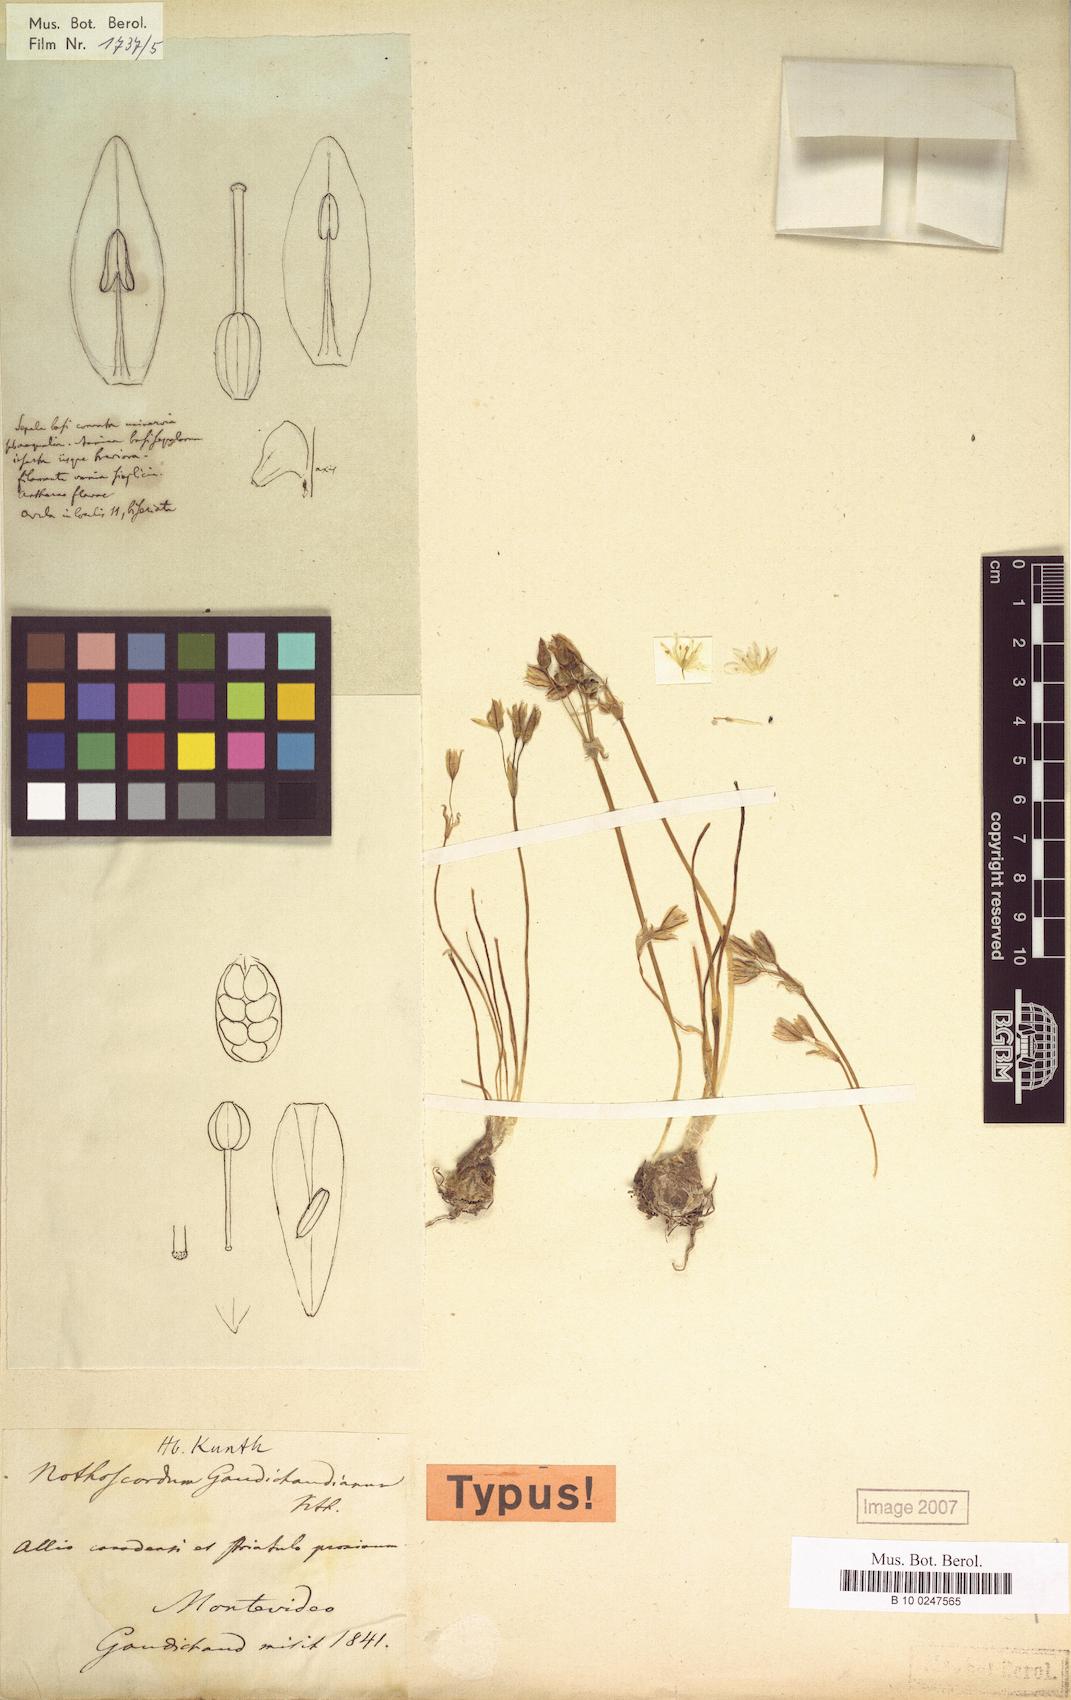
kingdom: Plantae
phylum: Tracheophyta
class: Liliopsida
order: Asparagales
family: Amaryllidaceae
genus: Nothoscordum
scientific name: Nothoscordum gaudichaudianum
